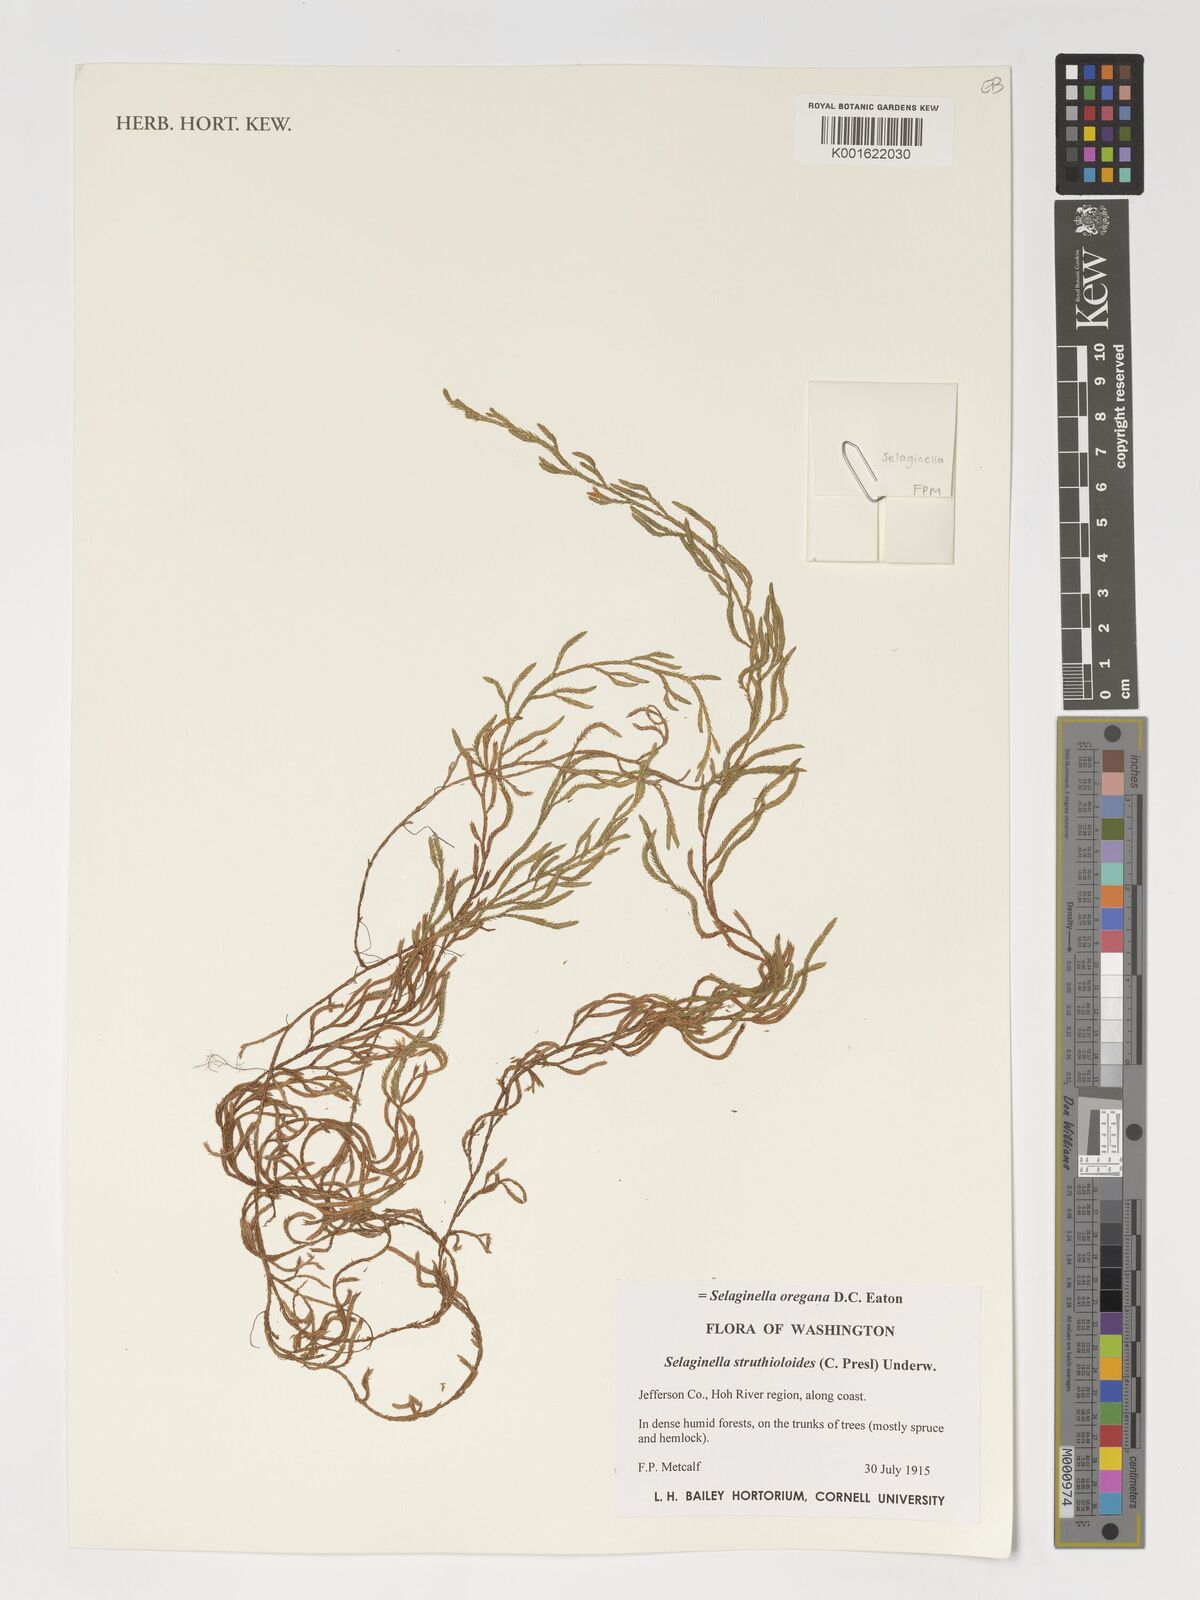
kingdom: Plantae
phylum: Tracheophyta
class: Lycopodiopsida
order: Lycopodiales
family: Lycopodiaceae
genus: Phlegmariurus
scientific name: Phlegmariurus carinatus
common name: Keeled tassel-fern
